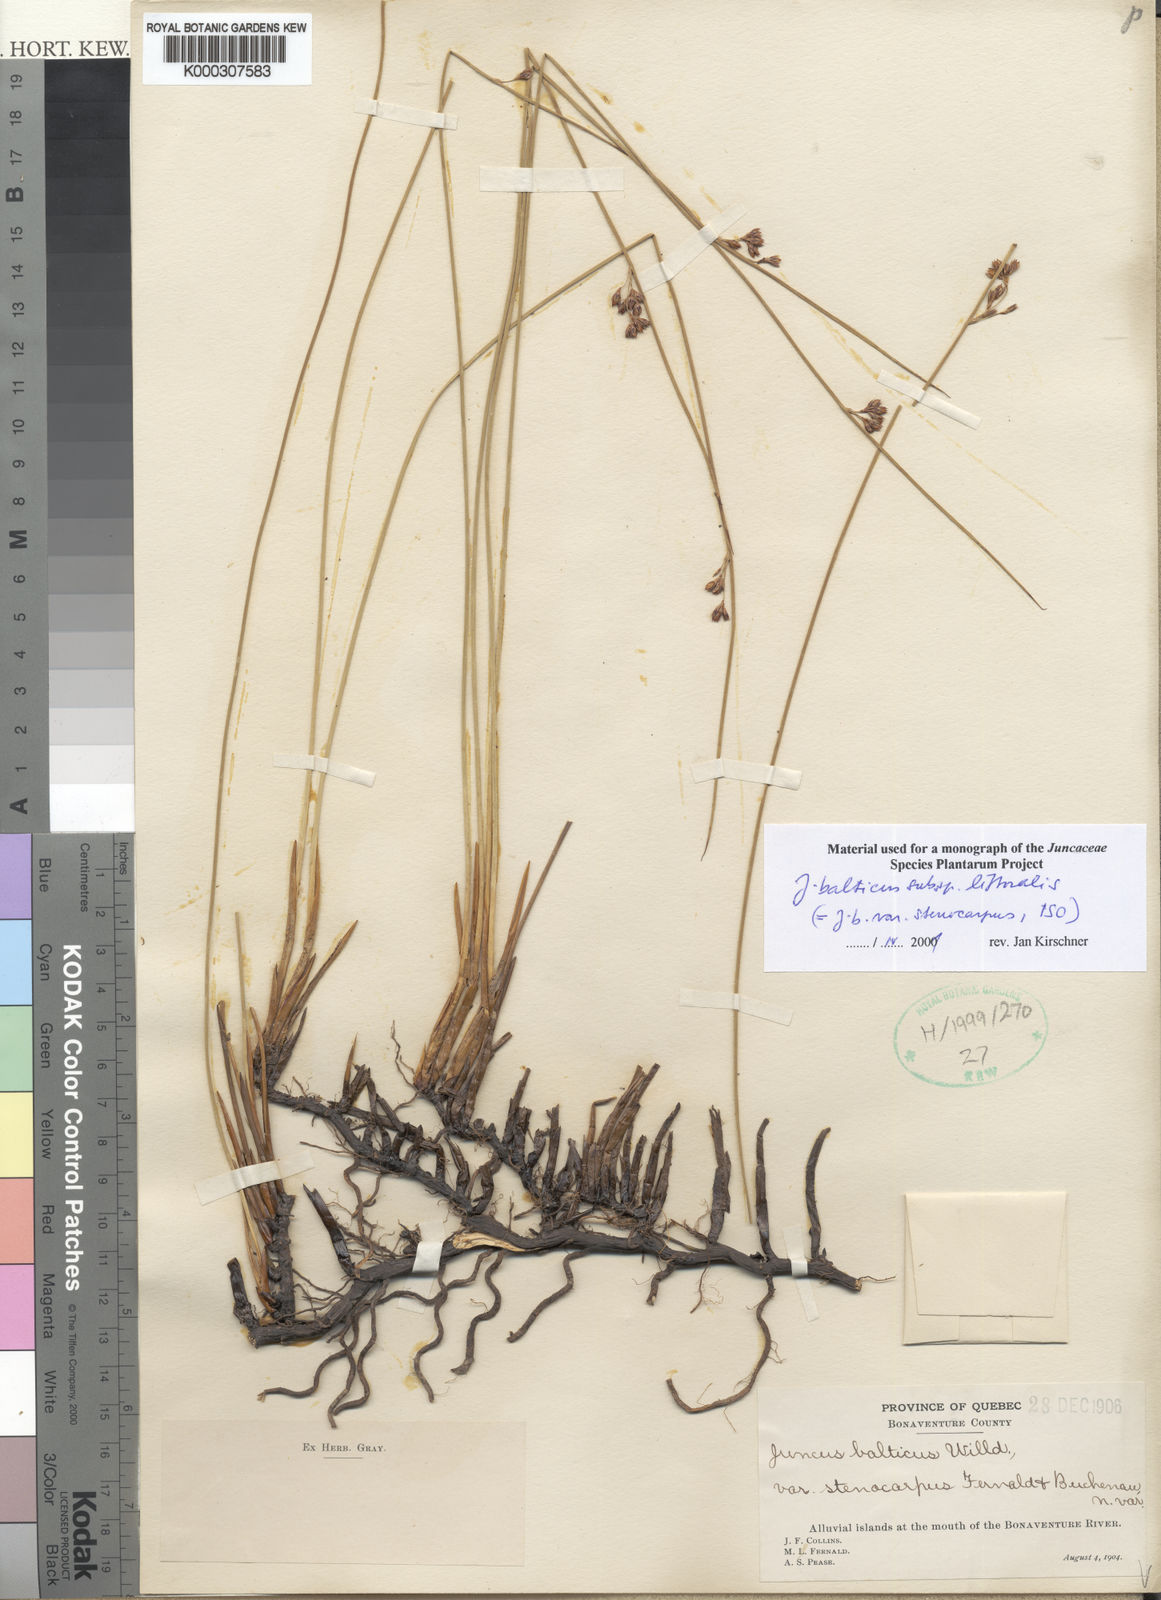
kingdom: Plantae
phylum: Tracheophyta
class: Liliopsida
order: Poales
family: Juncaceae
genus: Juncus
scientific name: Juncus balticus
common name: Baltic rush
